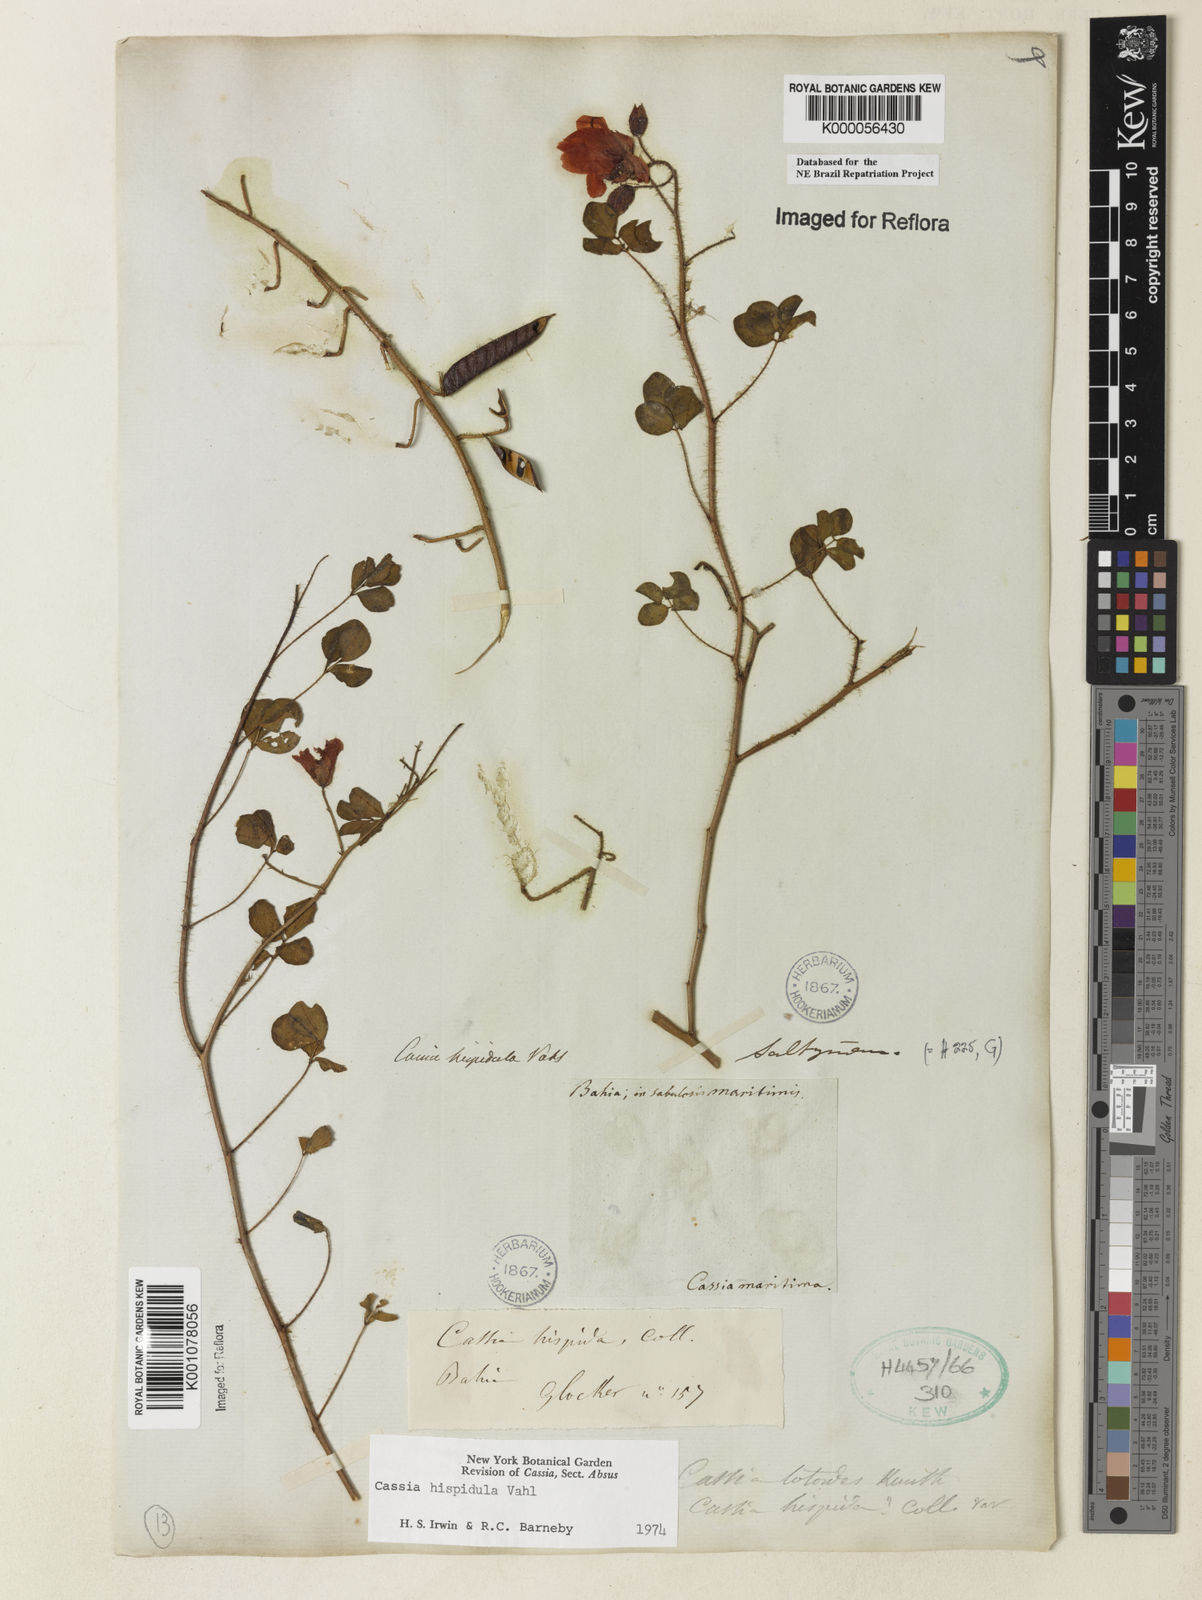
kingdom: Plantae
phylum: Tracheophyta
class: Magnoliopsida
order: Fabales
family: Fabaceae
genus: Chamaecrista
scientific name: Chamaecrista hispidula
